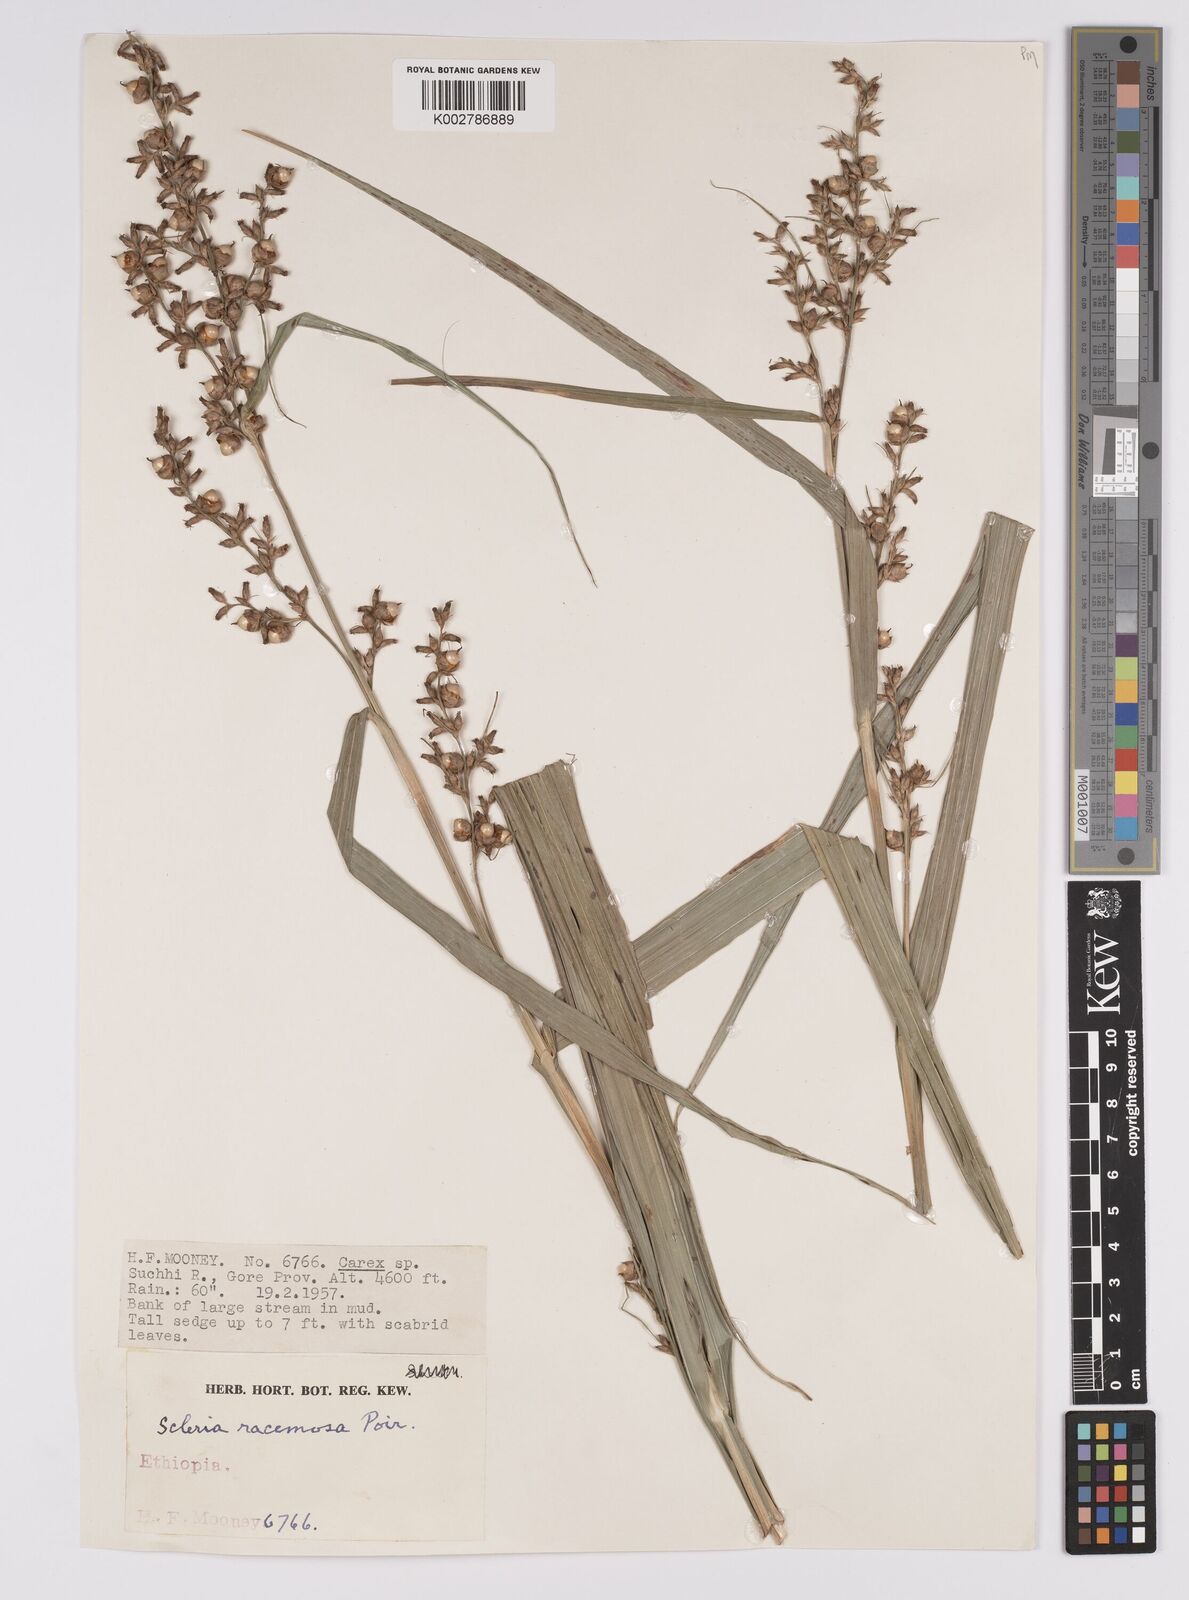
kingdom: Plantae
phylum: Tracheophyta
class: Liliopsida
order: Poales
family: Cyperaceae
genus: Scleria
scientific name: Scleria racemosa
